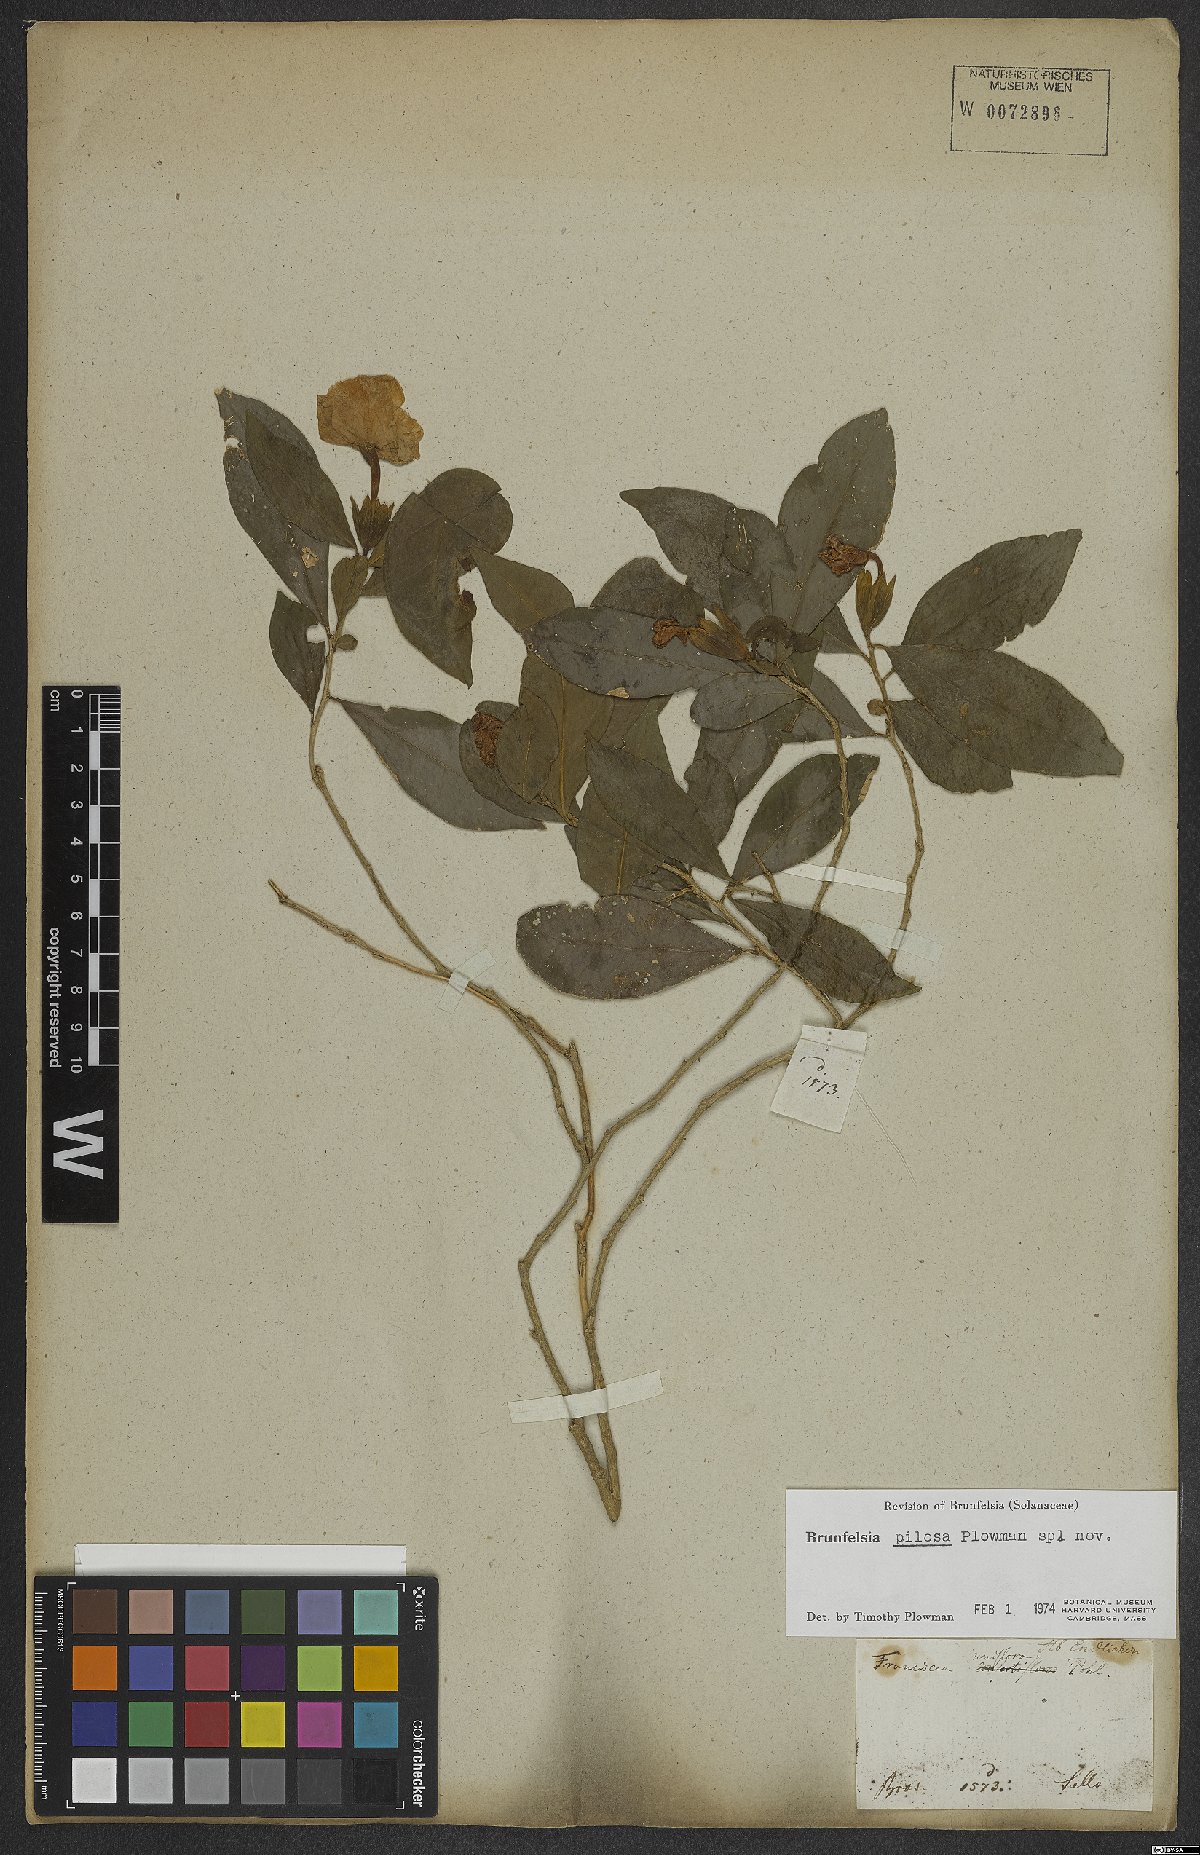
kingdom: Plantae
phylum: Tracheophyta
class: Magnoliopsida
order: Solanales
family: Solanaceae
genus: Brunfelsia
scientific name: Brunfelsia pilosa
